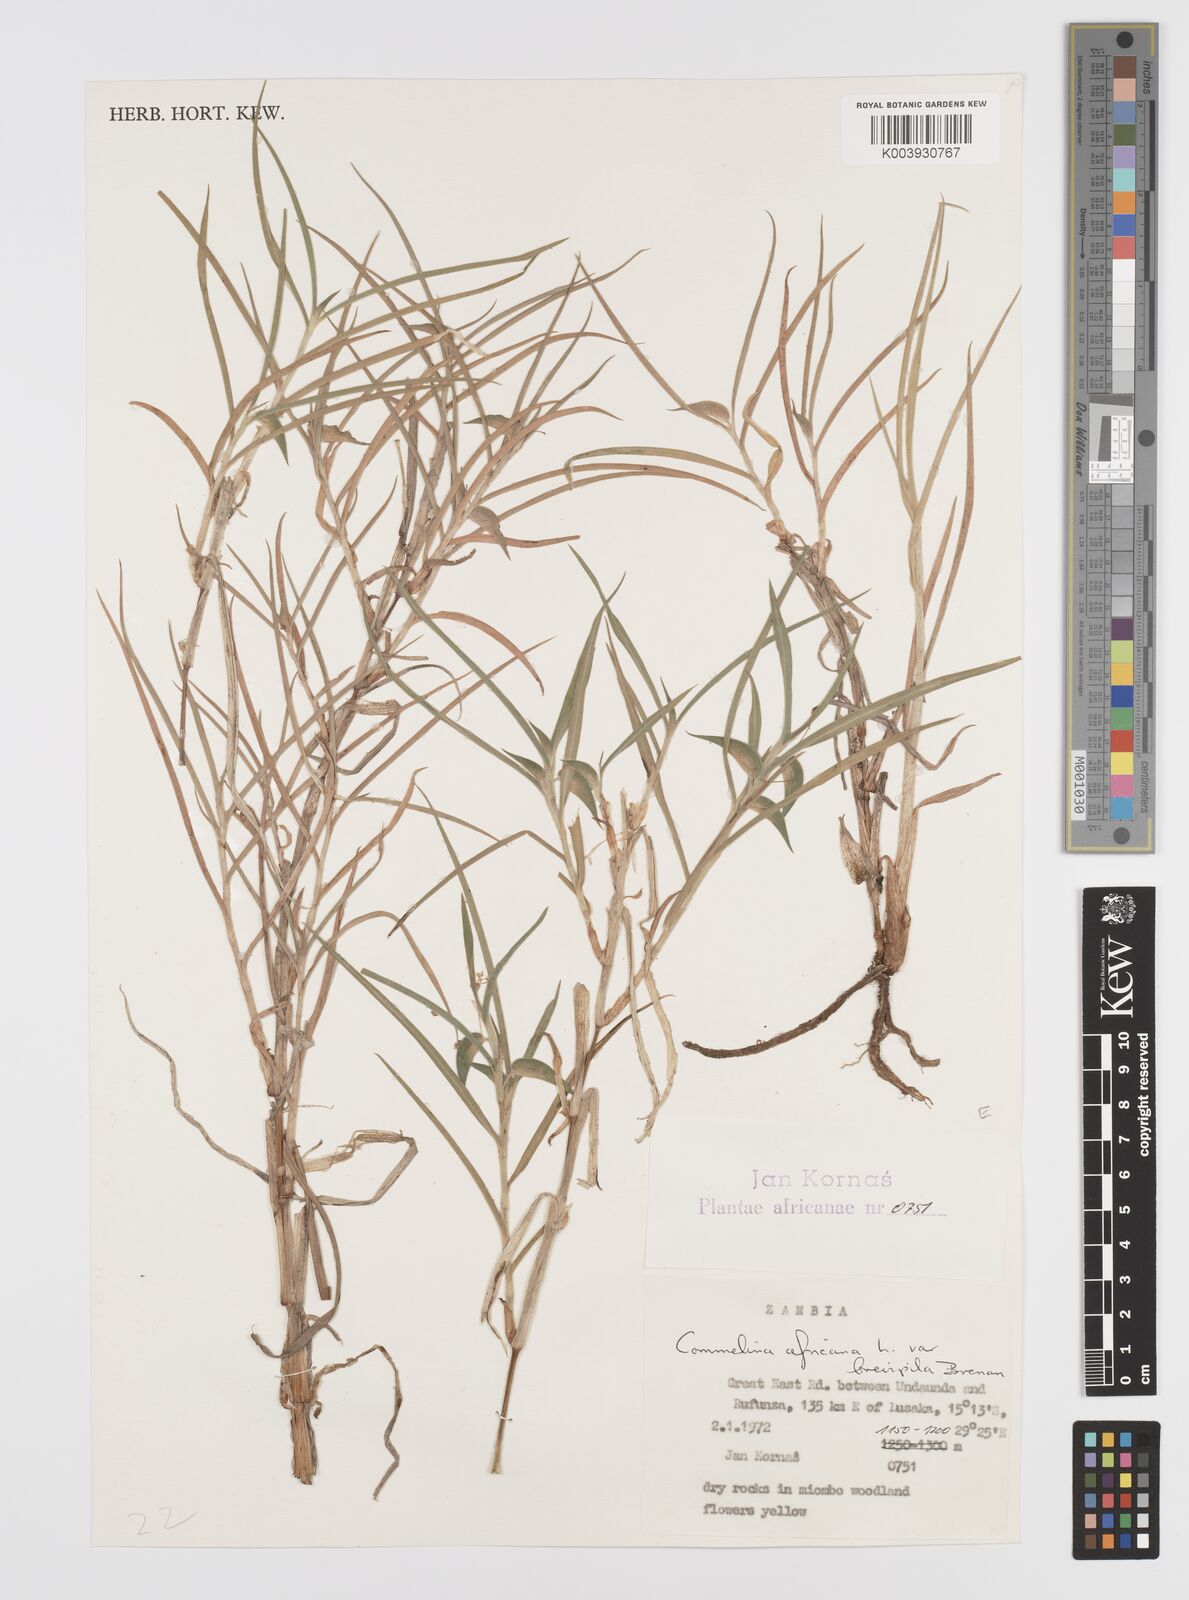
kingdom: Plantae
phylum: Tracheophyta
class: Liliopsida
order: Commelinales
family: Commelinaceae
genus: Commelina
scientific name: Commelina africana
